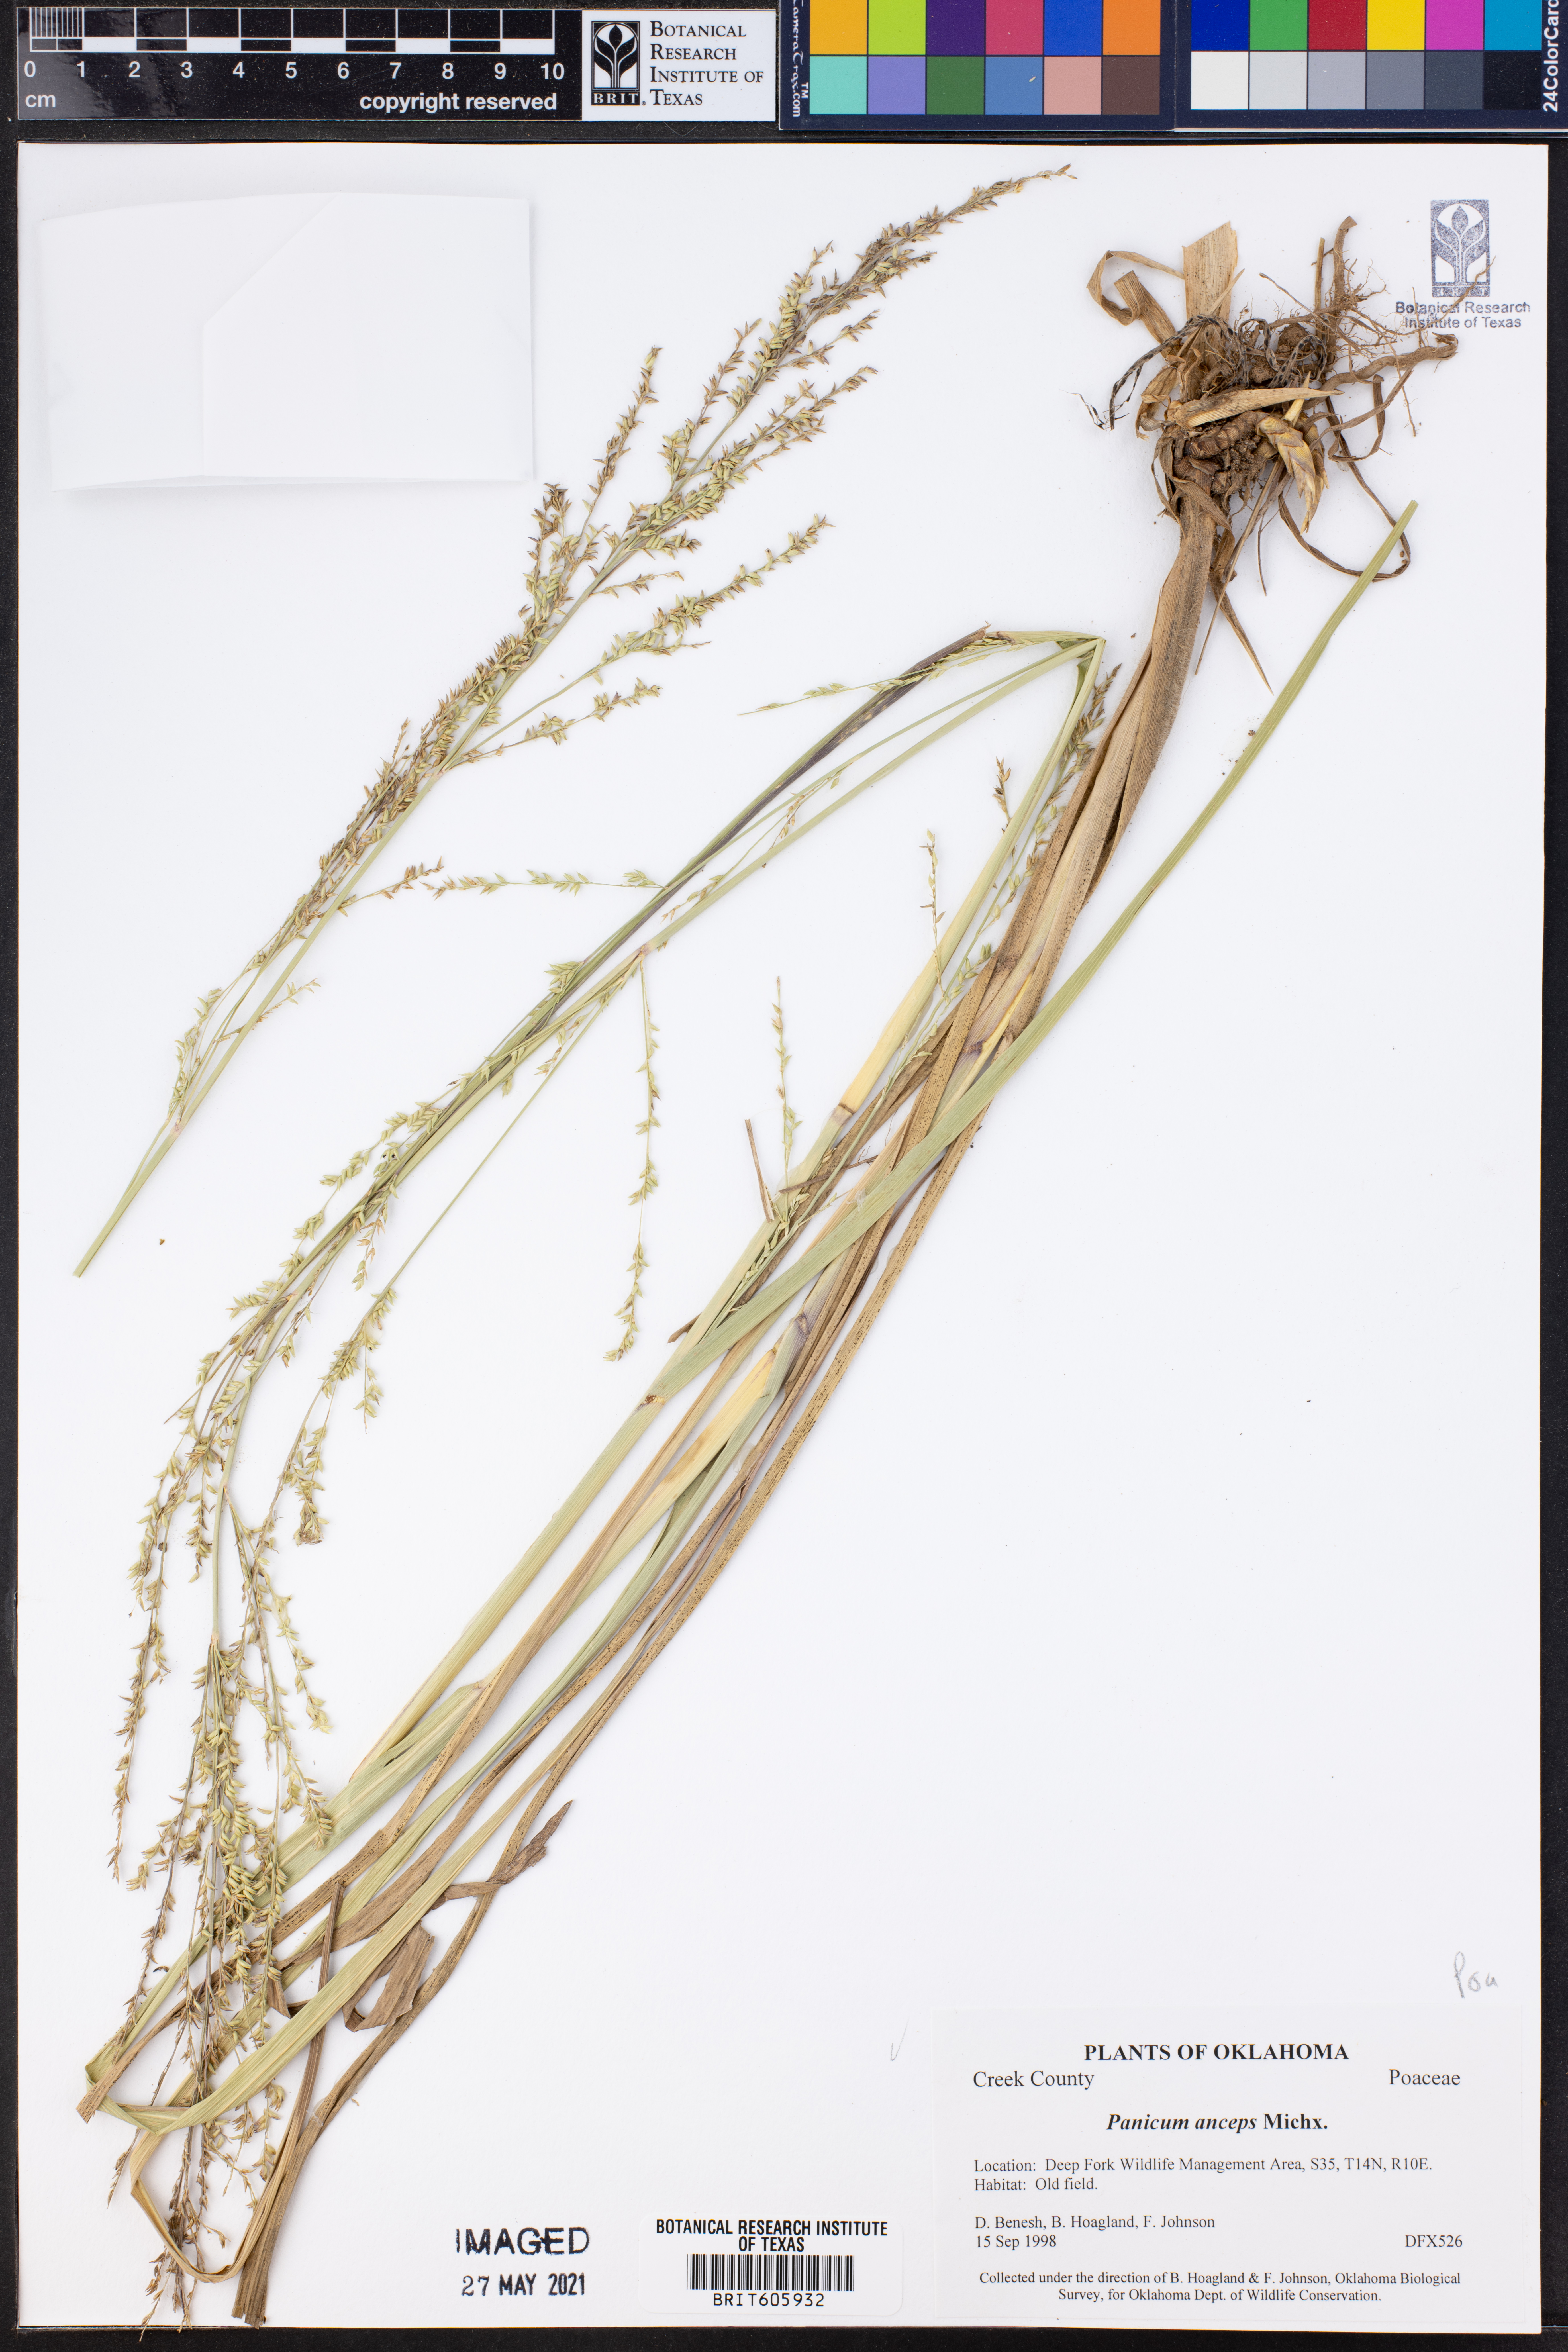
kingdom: Plantae
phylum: Tracheophyta
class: Liliopsida
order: Poales
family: Poaceae
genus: Coleataenia
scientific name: Coleataenia anceps
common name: Beaked panic grass
